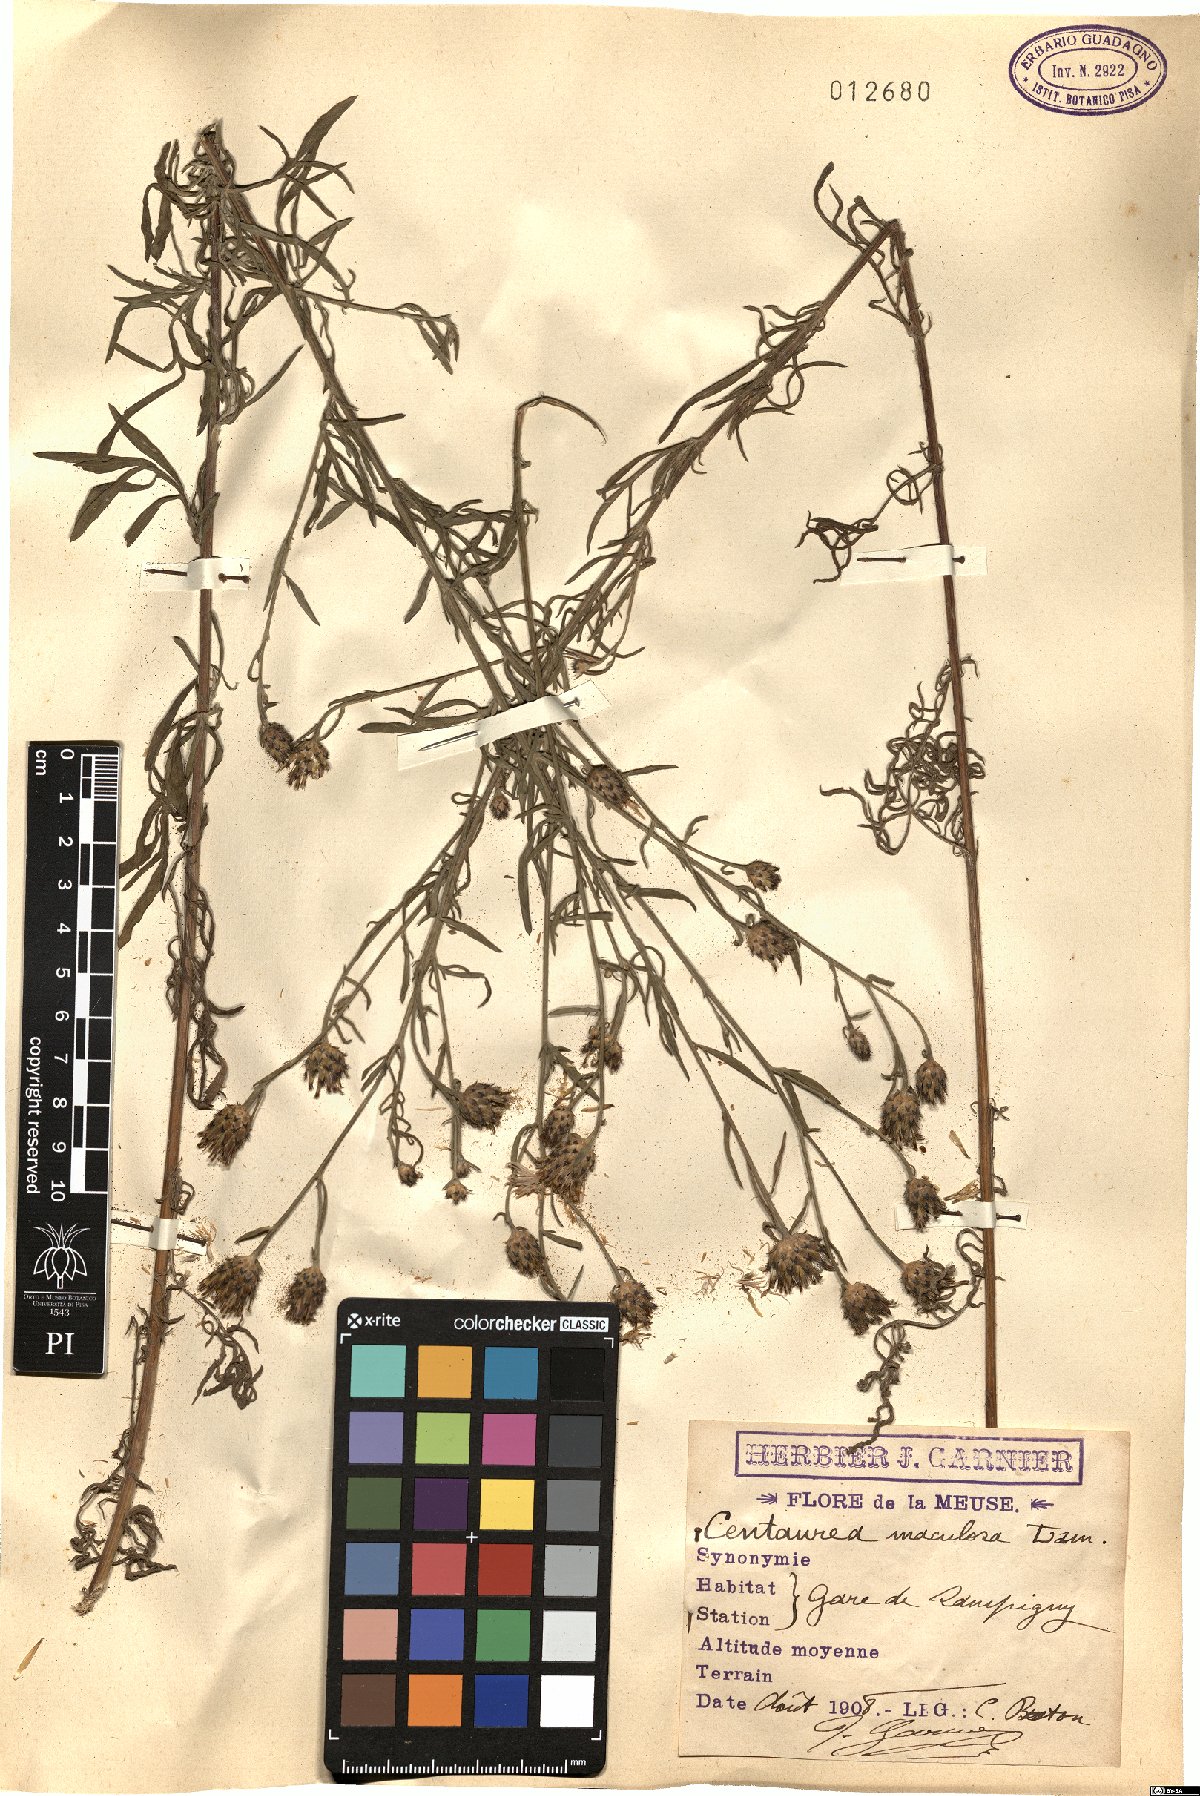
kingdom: Plantae
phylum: Tracheophyta
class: Magnoliopsida
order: Asterales
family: Asteraceae
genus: Centaurea
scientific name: Centaurea stoebe
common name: Spotted knapweed
